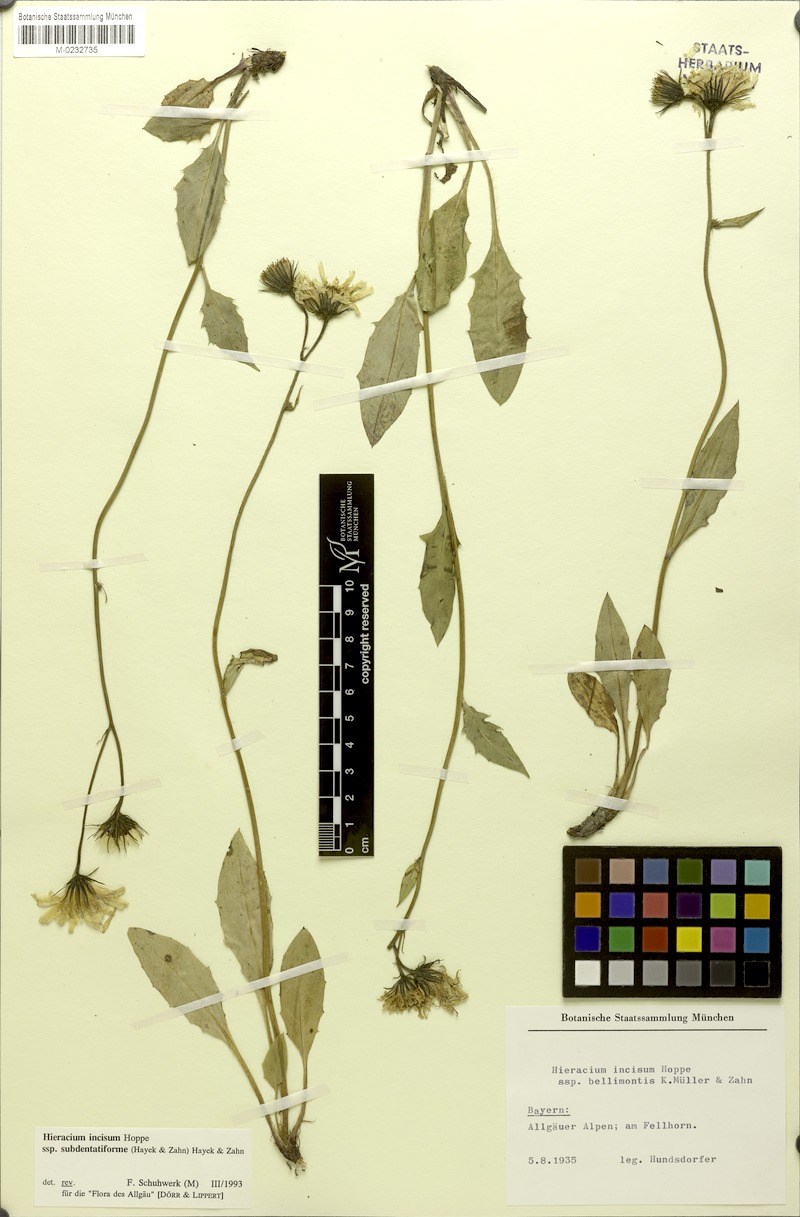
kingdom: Plantae
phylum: Tracheophyta
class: Magnoliopsida
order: Asterales
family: Asteraceae
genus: Hieracium
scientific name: Hieracium incisum
